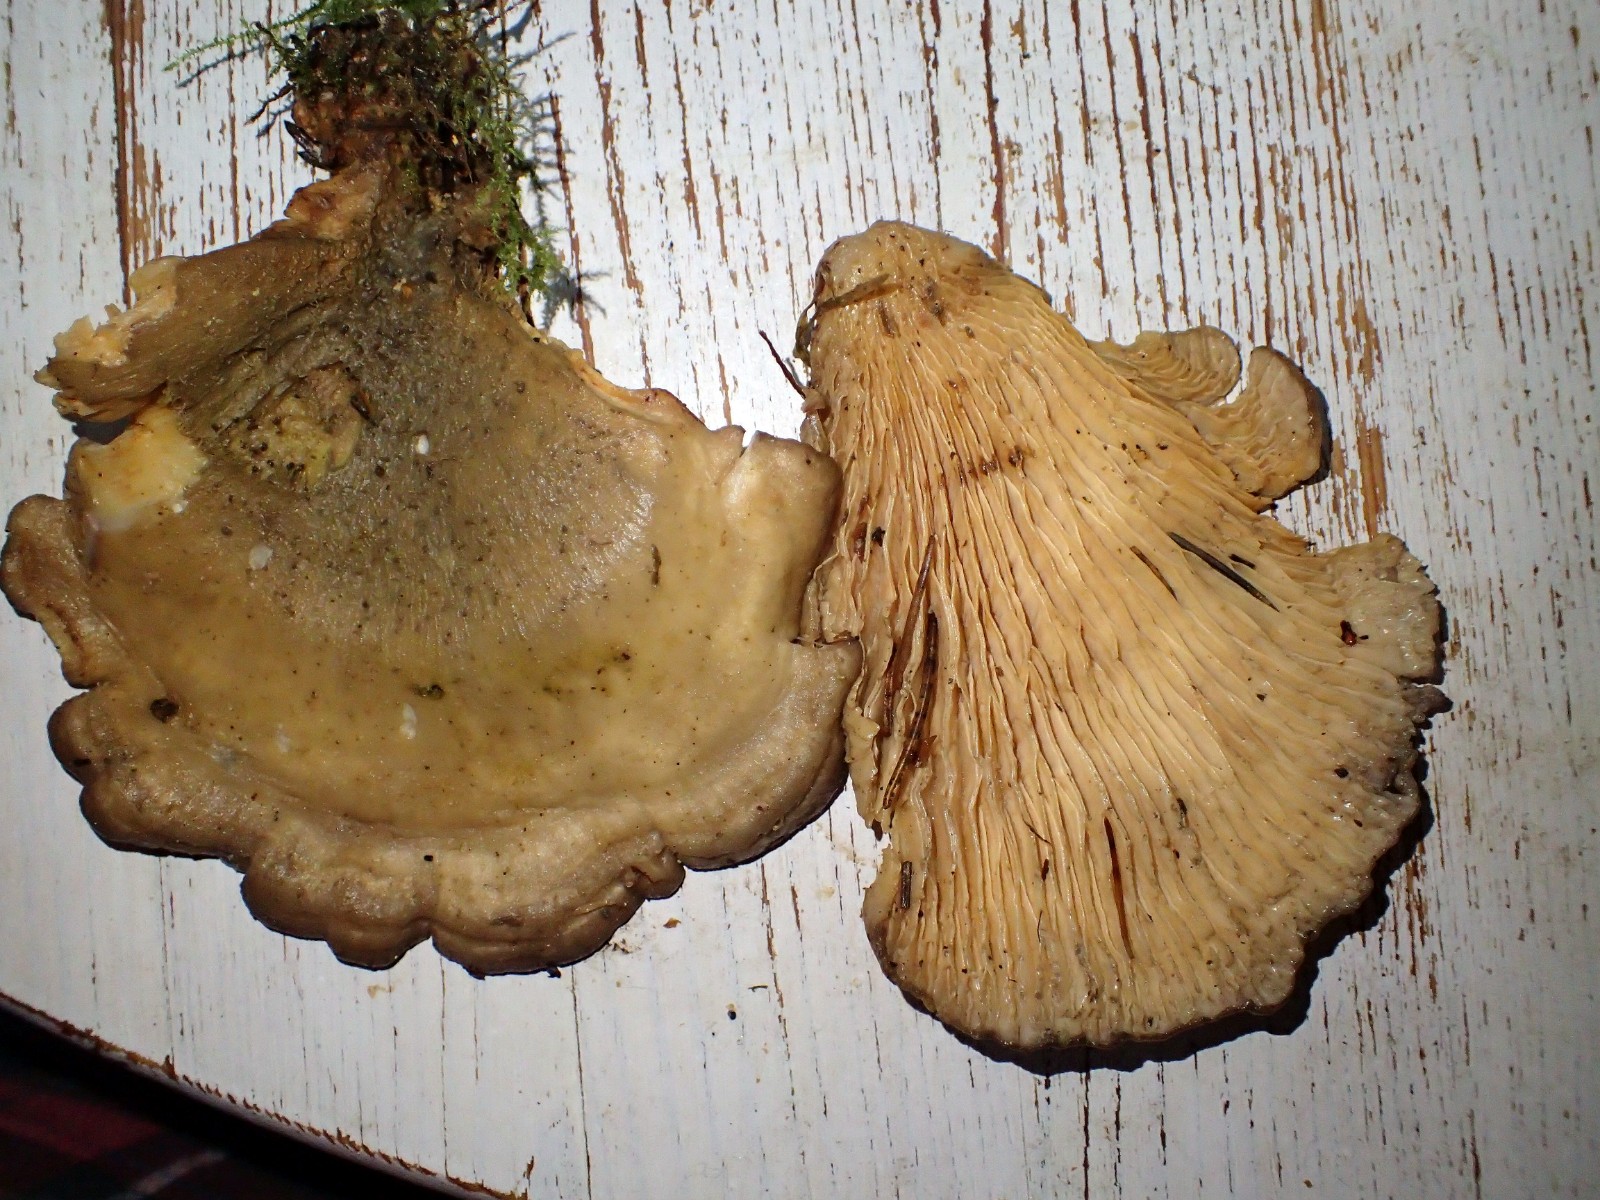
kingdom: Fungi
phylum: Basidiomycota
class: Agaricomycetes
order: Boletales
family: Tapinellaceae
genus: Tapinella
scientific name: Tapinella panuoides
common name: tømmer-viftesvamp
